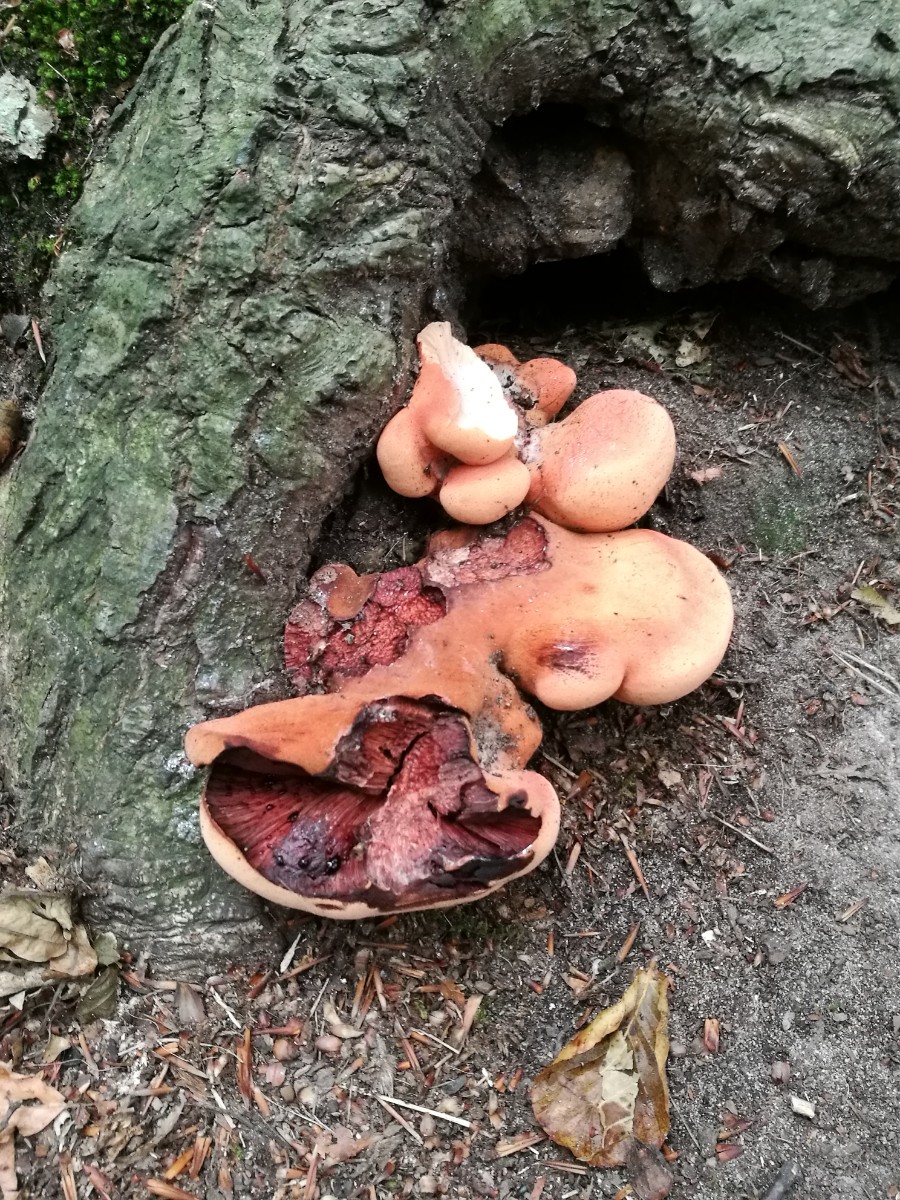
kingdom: Fungi
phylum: Basidiomycota
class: Agaricomycetes
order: Agaricales
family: Fistulinaceae
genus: Fistulina
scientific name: Fistulina hepatica
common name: oksetunge
